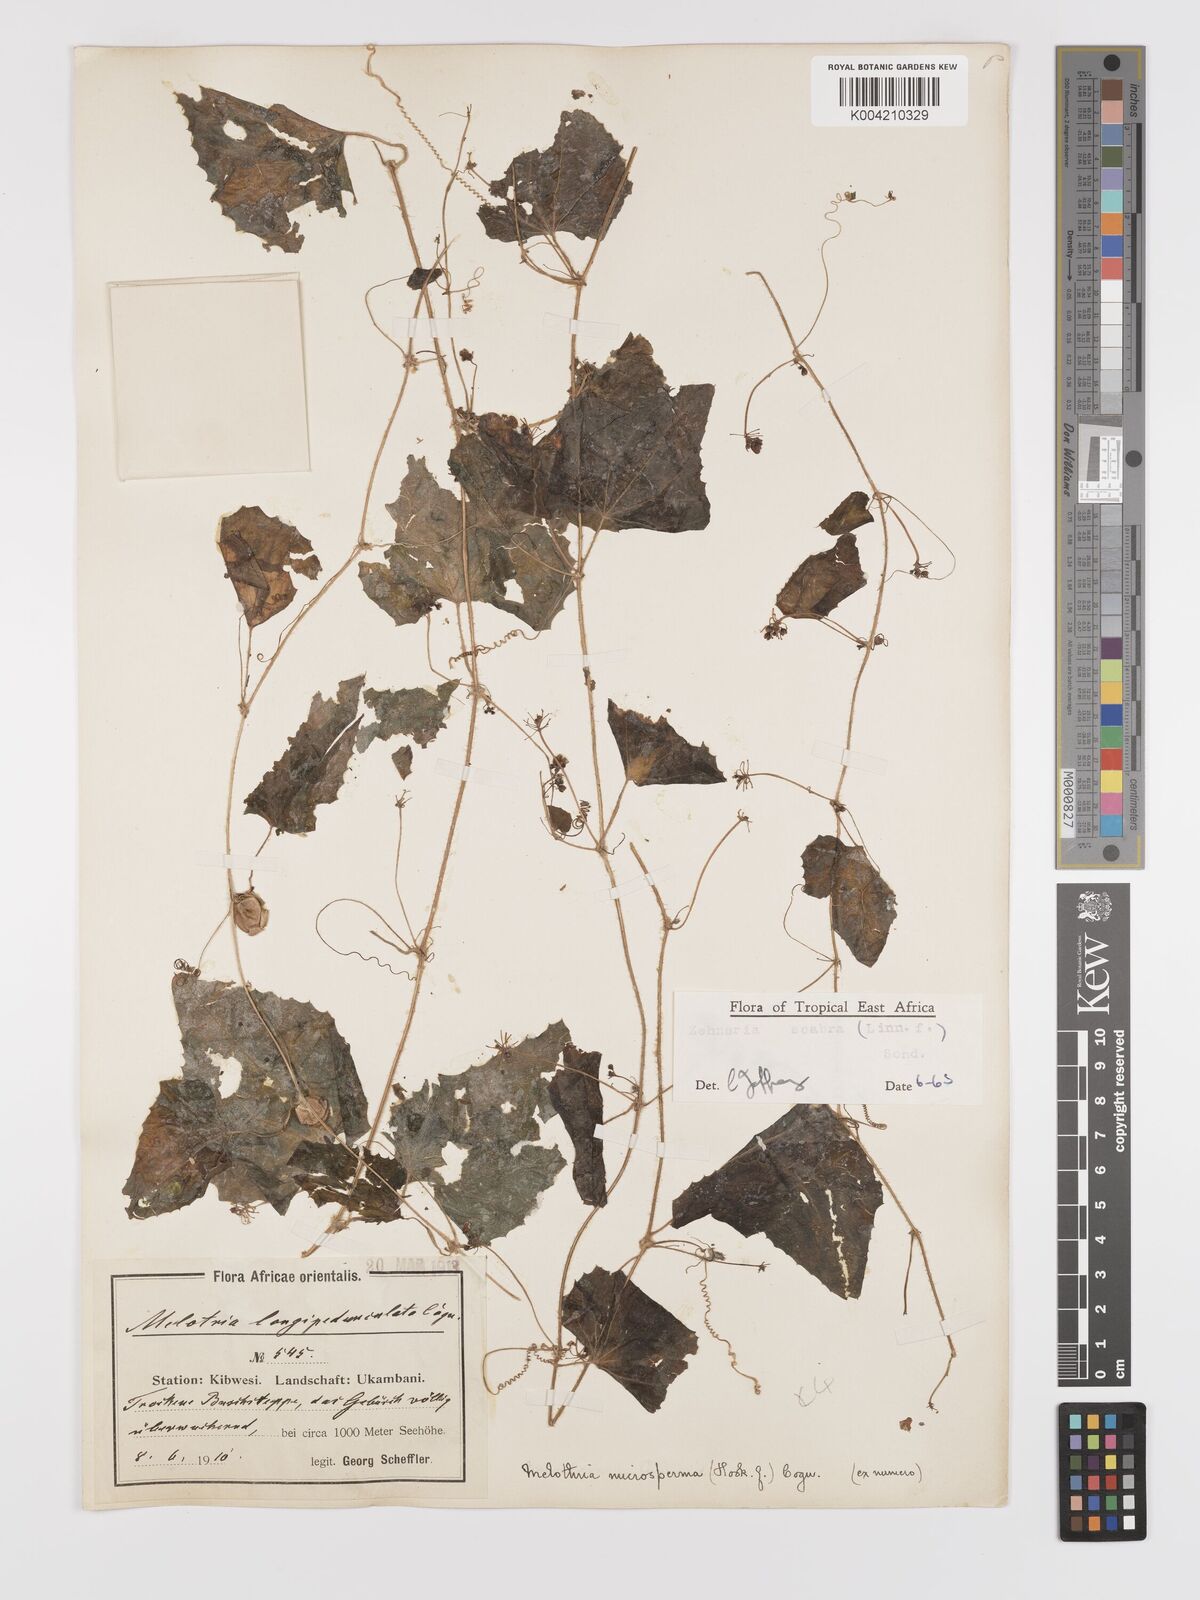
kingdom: Plantae
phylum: Tracheophyta
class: Magnoliopsida
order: Cucurbitales
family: Cucurbitaceae
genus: Zehneria
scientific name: Zehneria scabra
